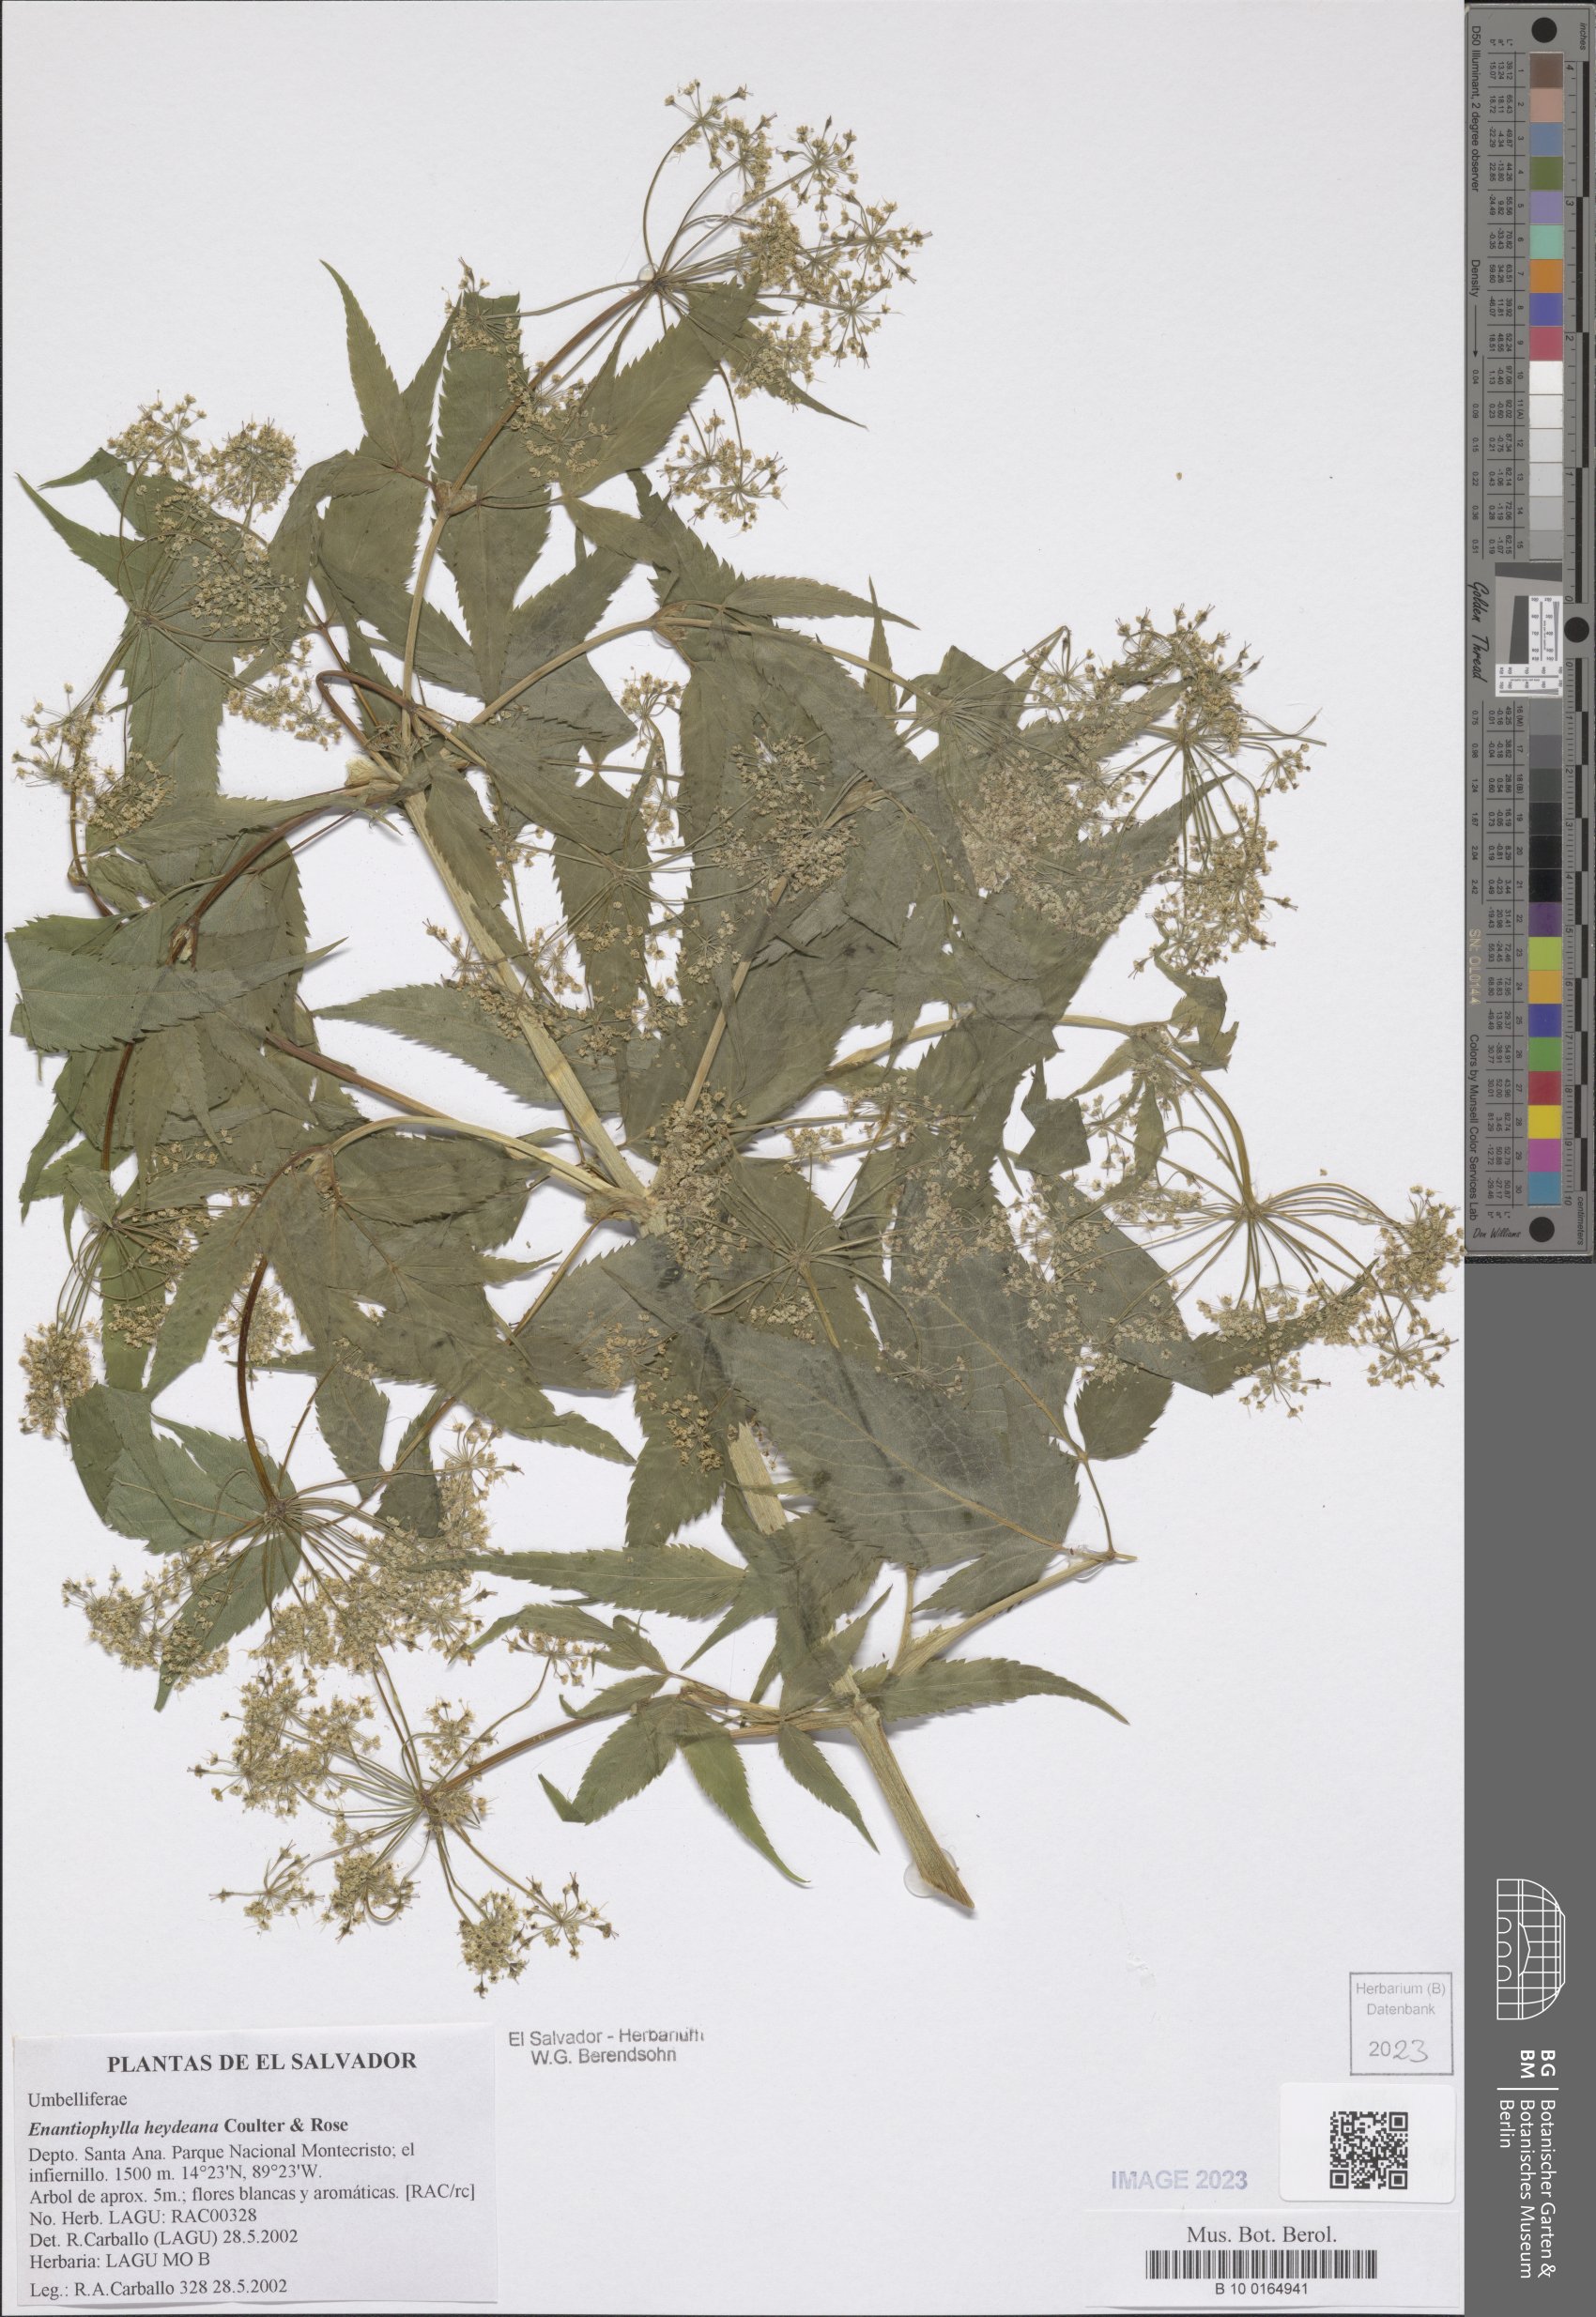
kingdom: Plantae
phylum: Tracheophyta
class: Magnoliopsida
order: Apiales
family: Apiaceae
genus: Enantiophylla
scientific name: Enantiophylla heydeana
